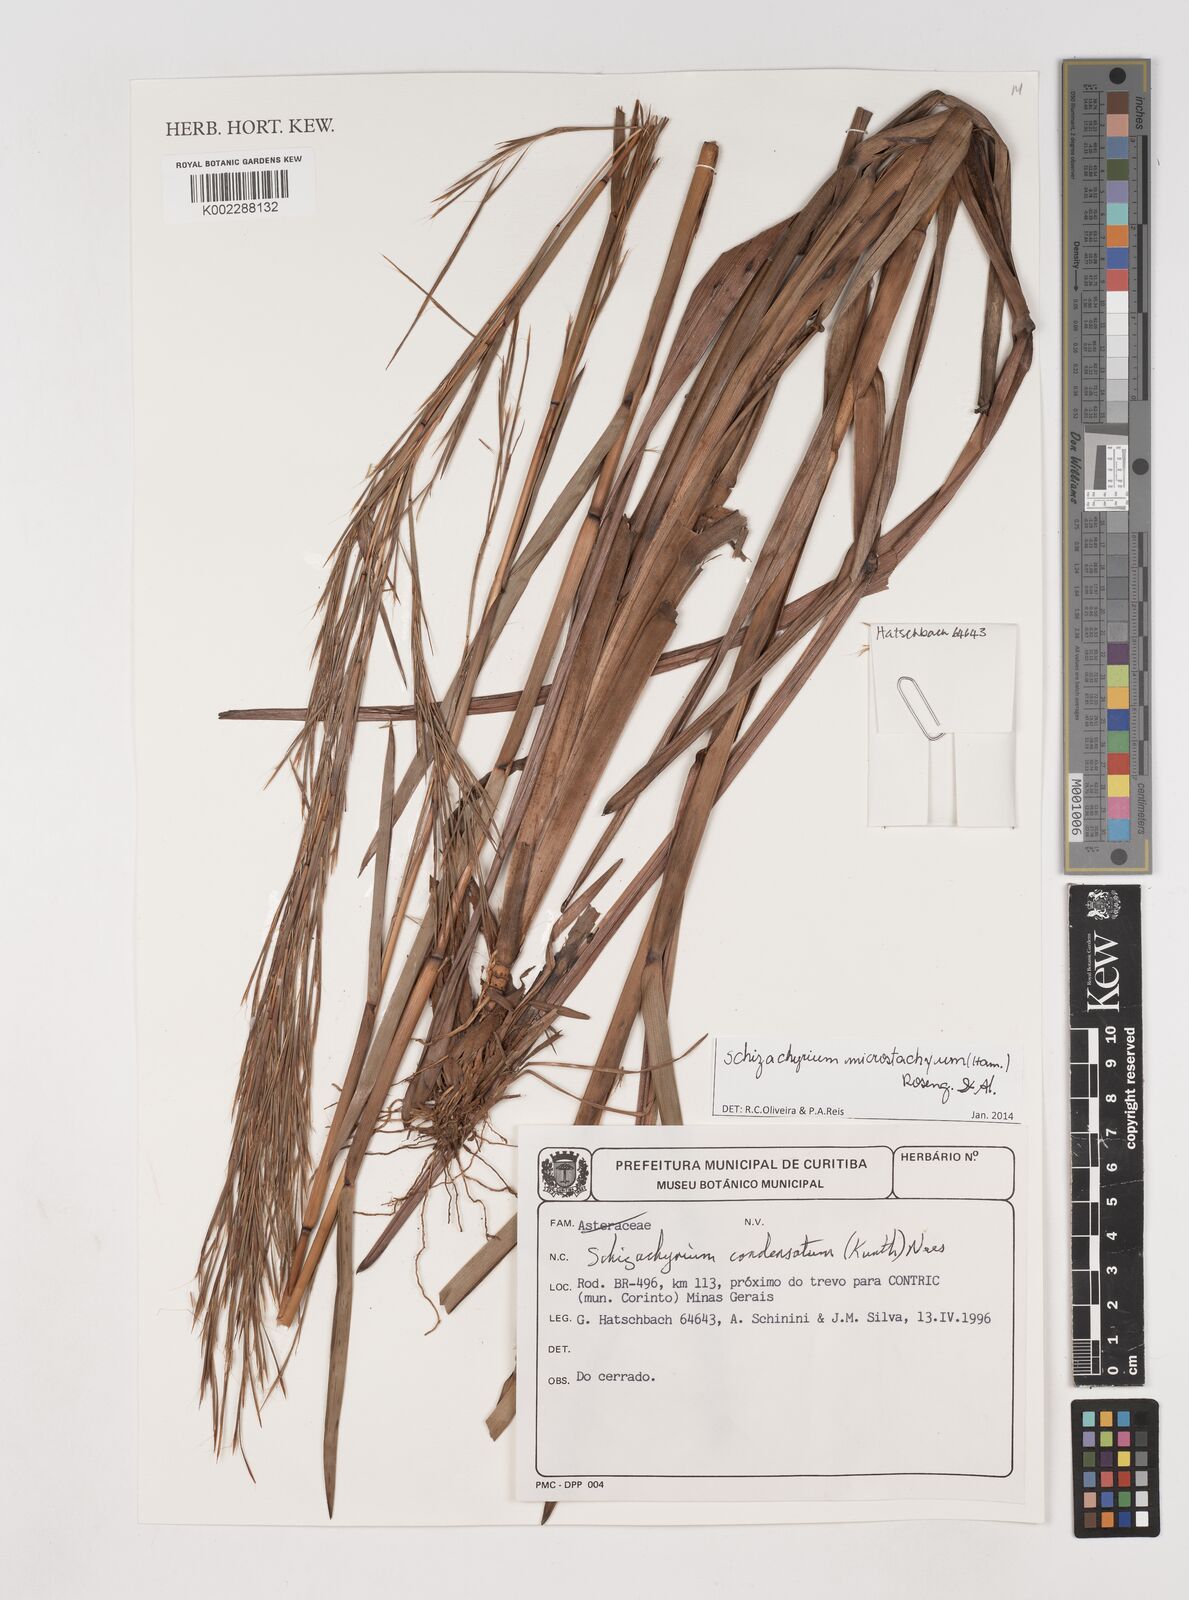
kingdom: Plantae
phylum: Tracheophyta
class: Liliopsida
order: Poales
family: Poaceae
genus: Schizachyrium
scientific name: Schizachyrium microstachyum
